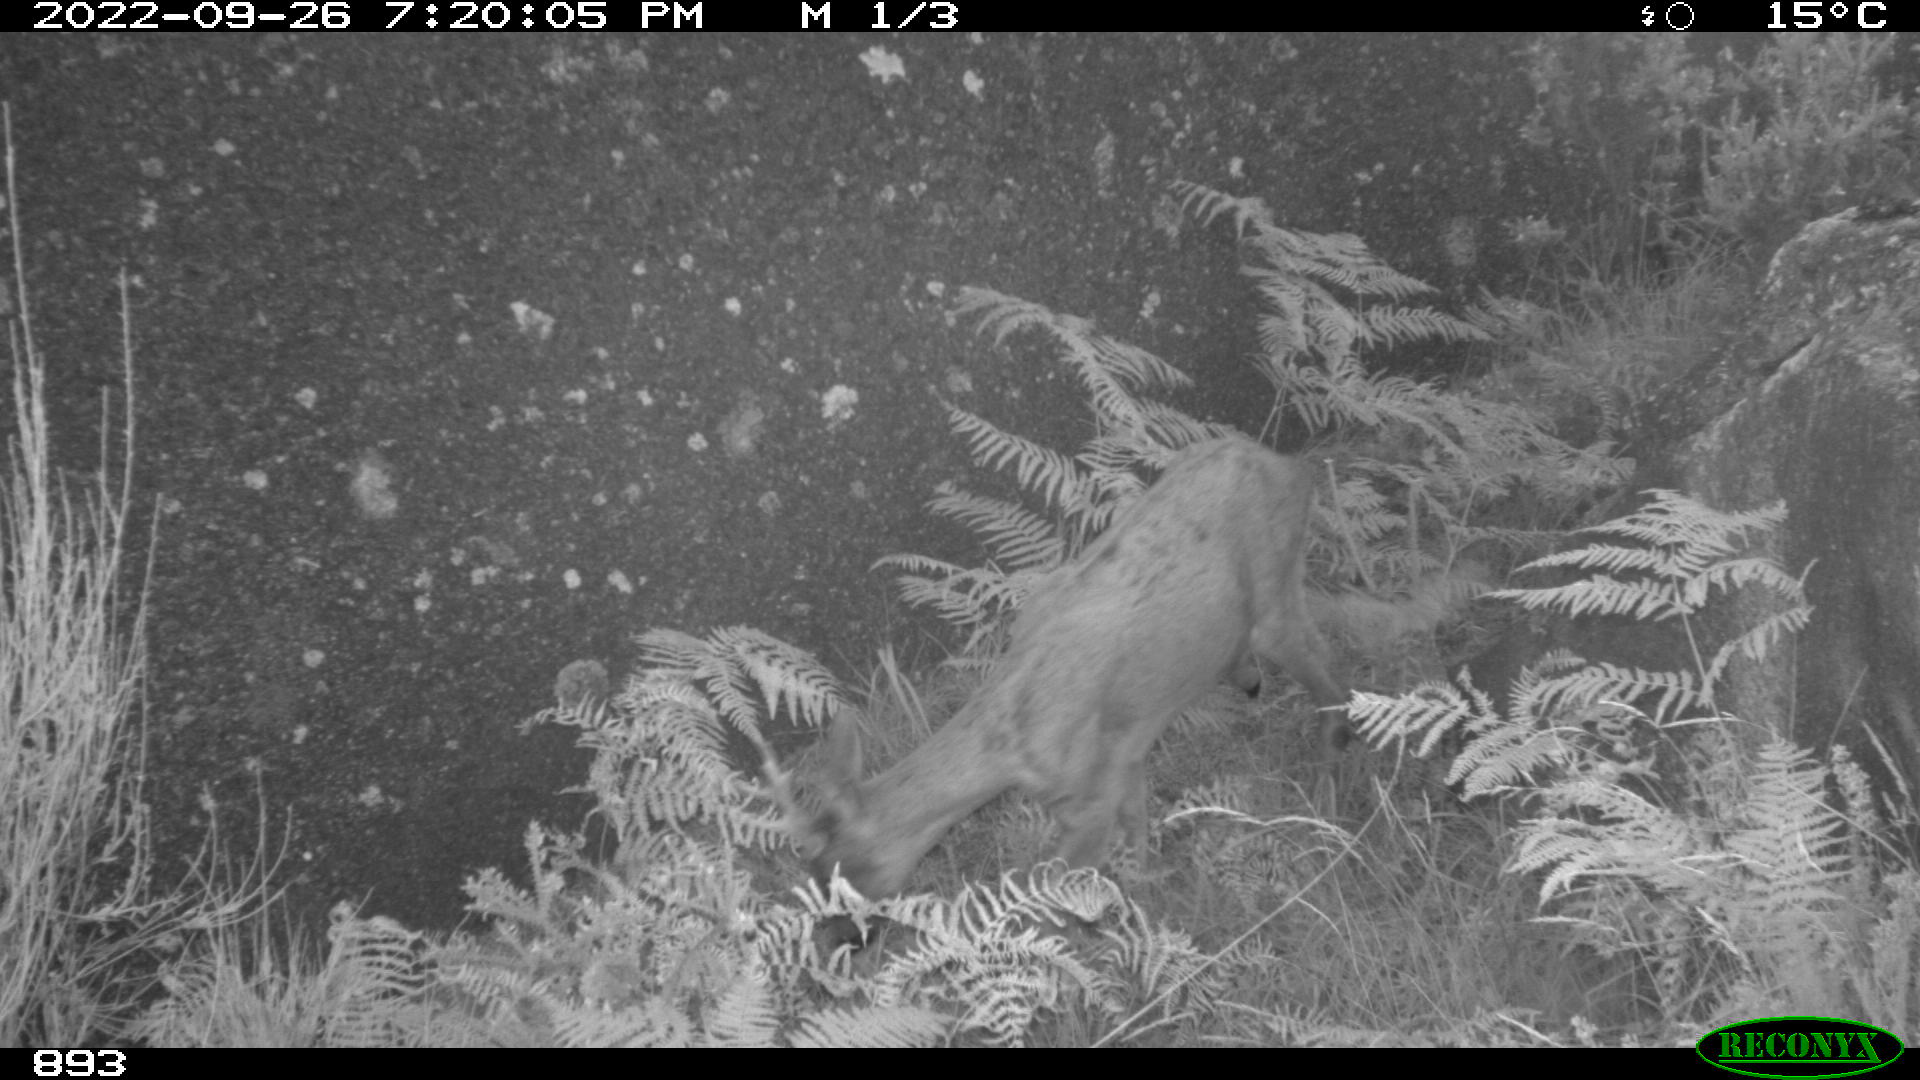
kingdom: Animalia
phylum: Chordata
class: Mammalia
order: Artiodactyla
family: Cervidae
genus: Capreolus
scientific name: Capreolus capreolus
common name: Western roe deer
